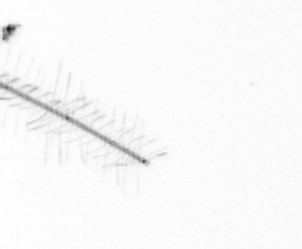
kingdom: Chromista
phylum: Ochrophyta
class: Bacillariophyceae
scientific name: Bacillariophyceae
